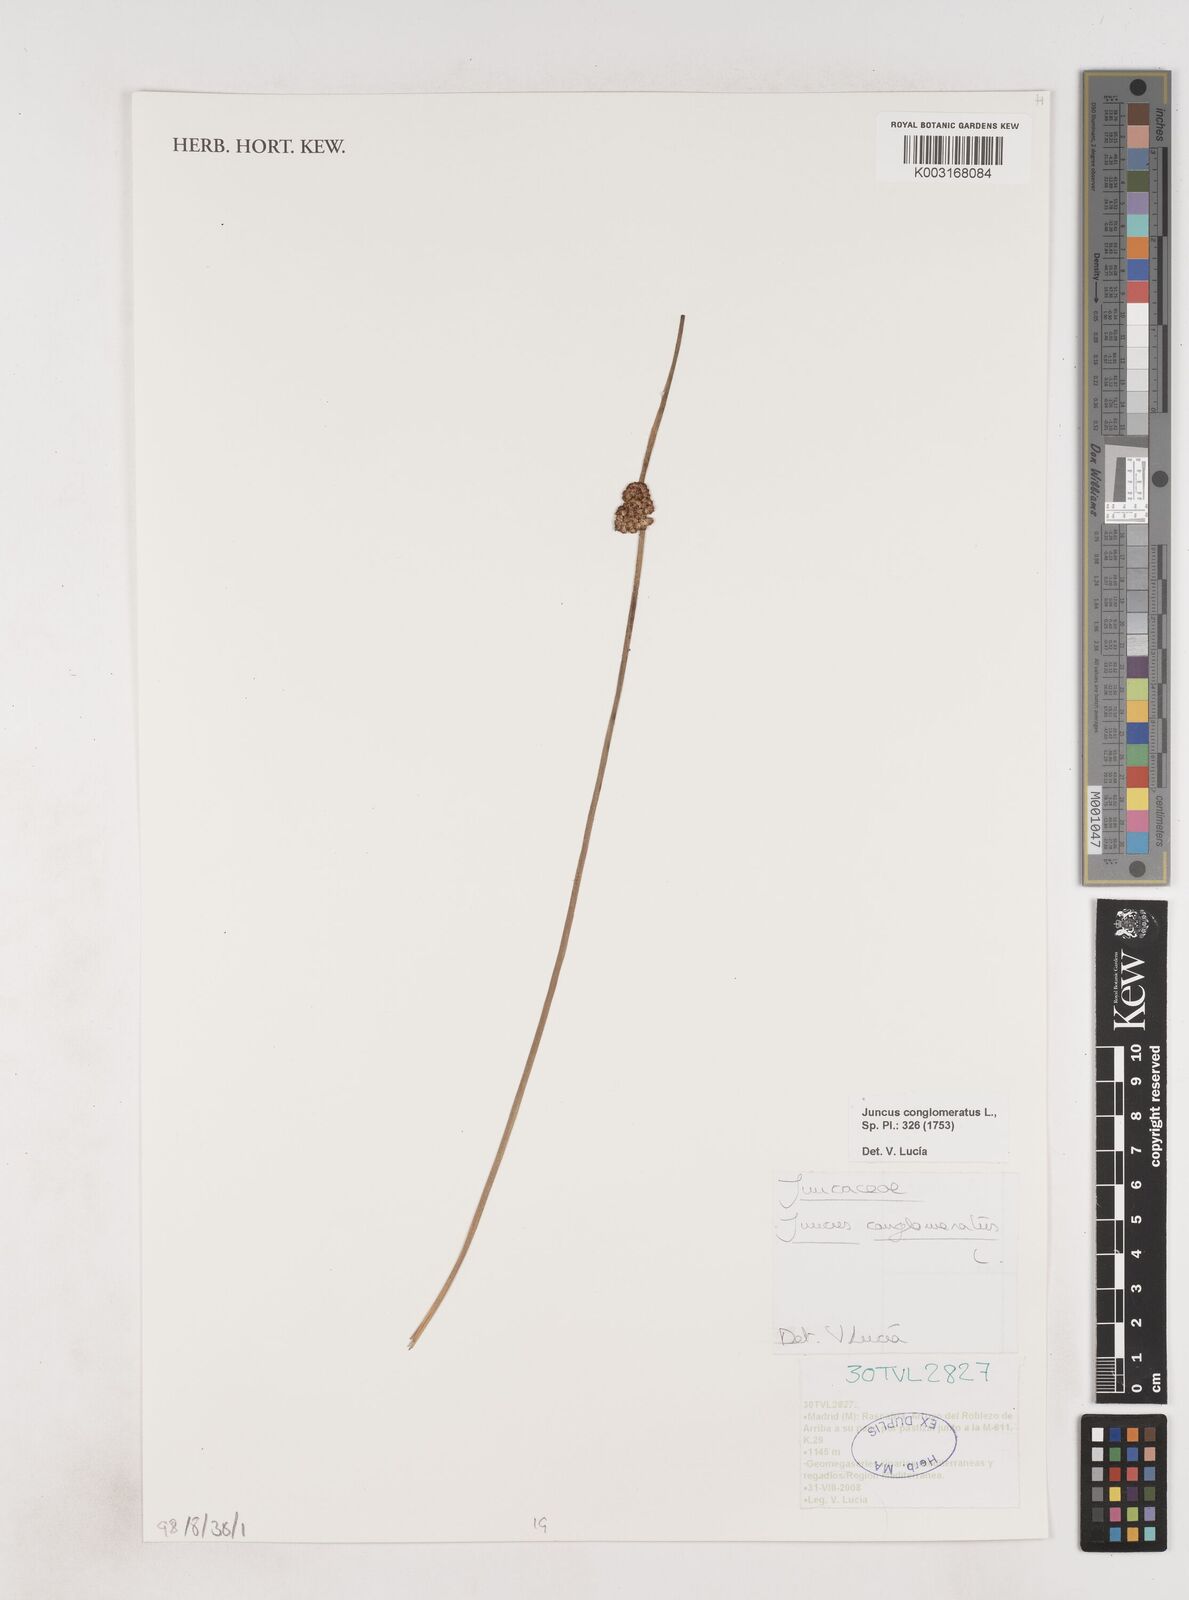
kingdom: Plantae
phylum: Tracheophyta
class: Liliopsida
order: Poales
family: Juncaceae
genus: Juncus
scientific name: Juncus conglomeratus
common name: Compact rush
